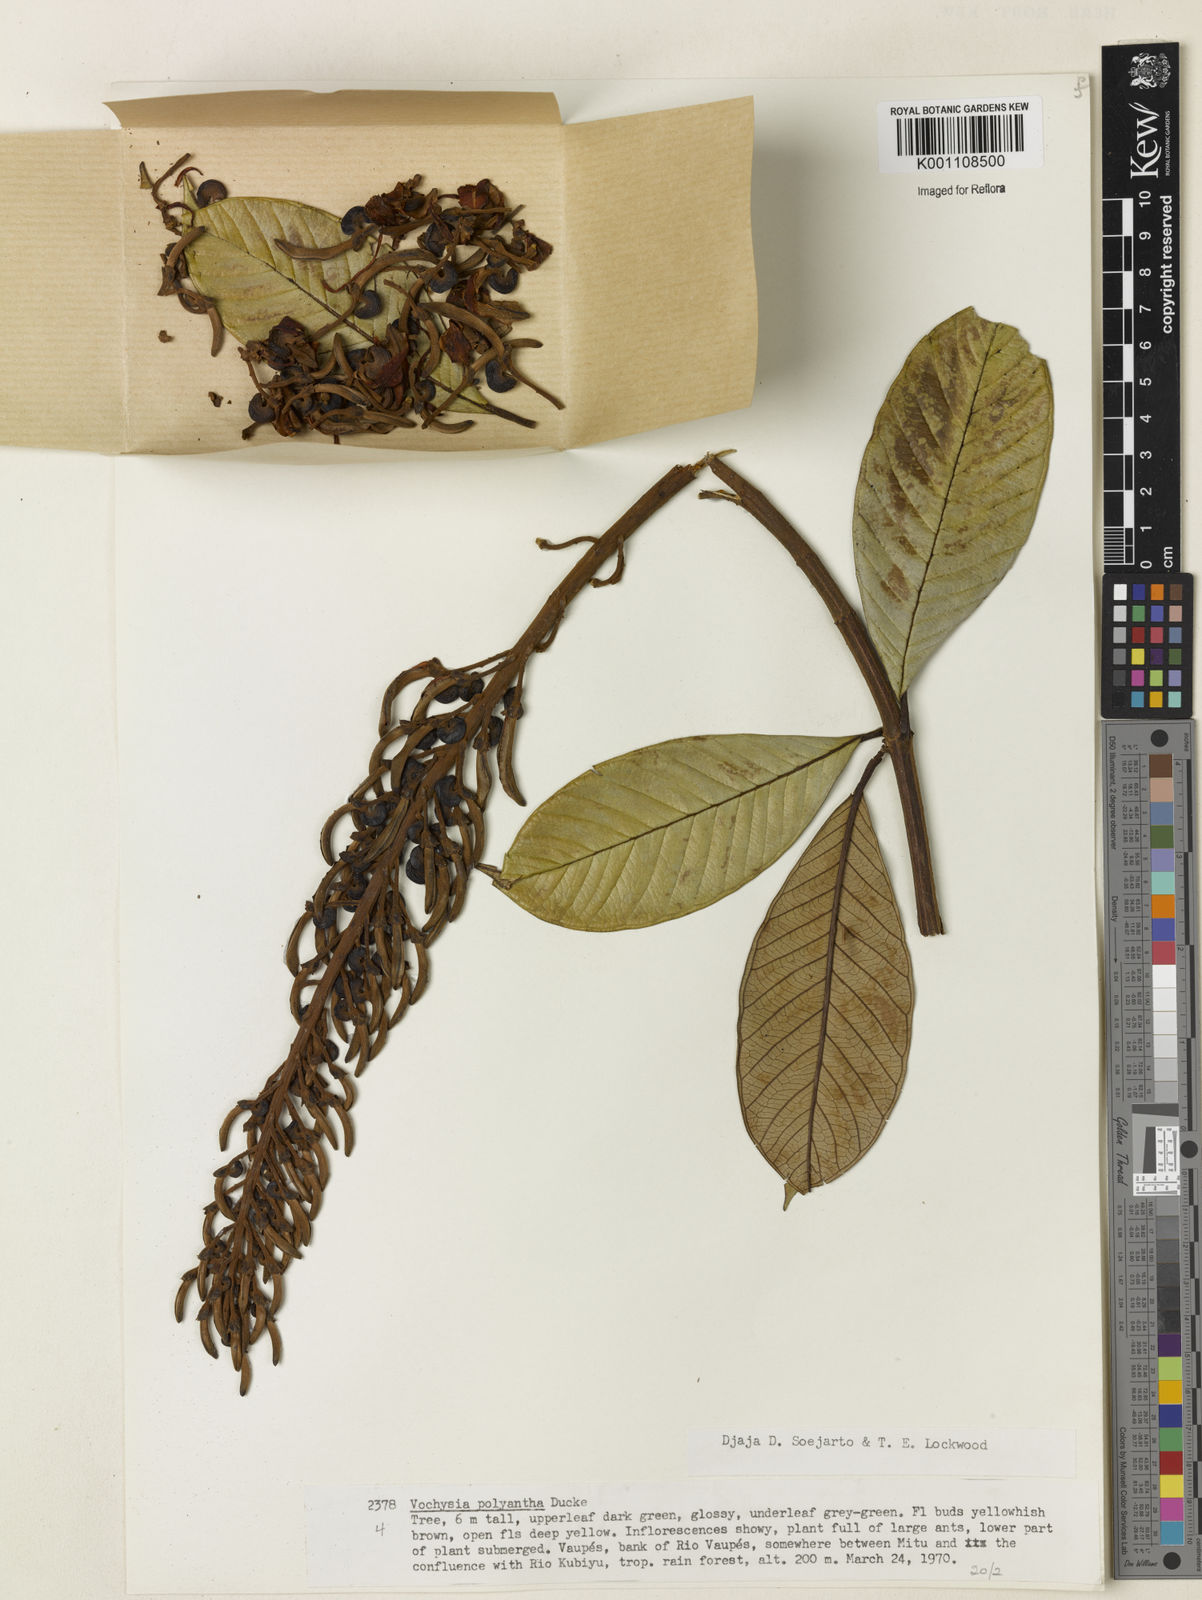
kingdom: Plantae
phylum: Tracheophyta
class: Magnoliopsida
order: Myrtales
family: Vochysiaceae
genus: Vochysia
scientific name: Vochysia lomatophylla
